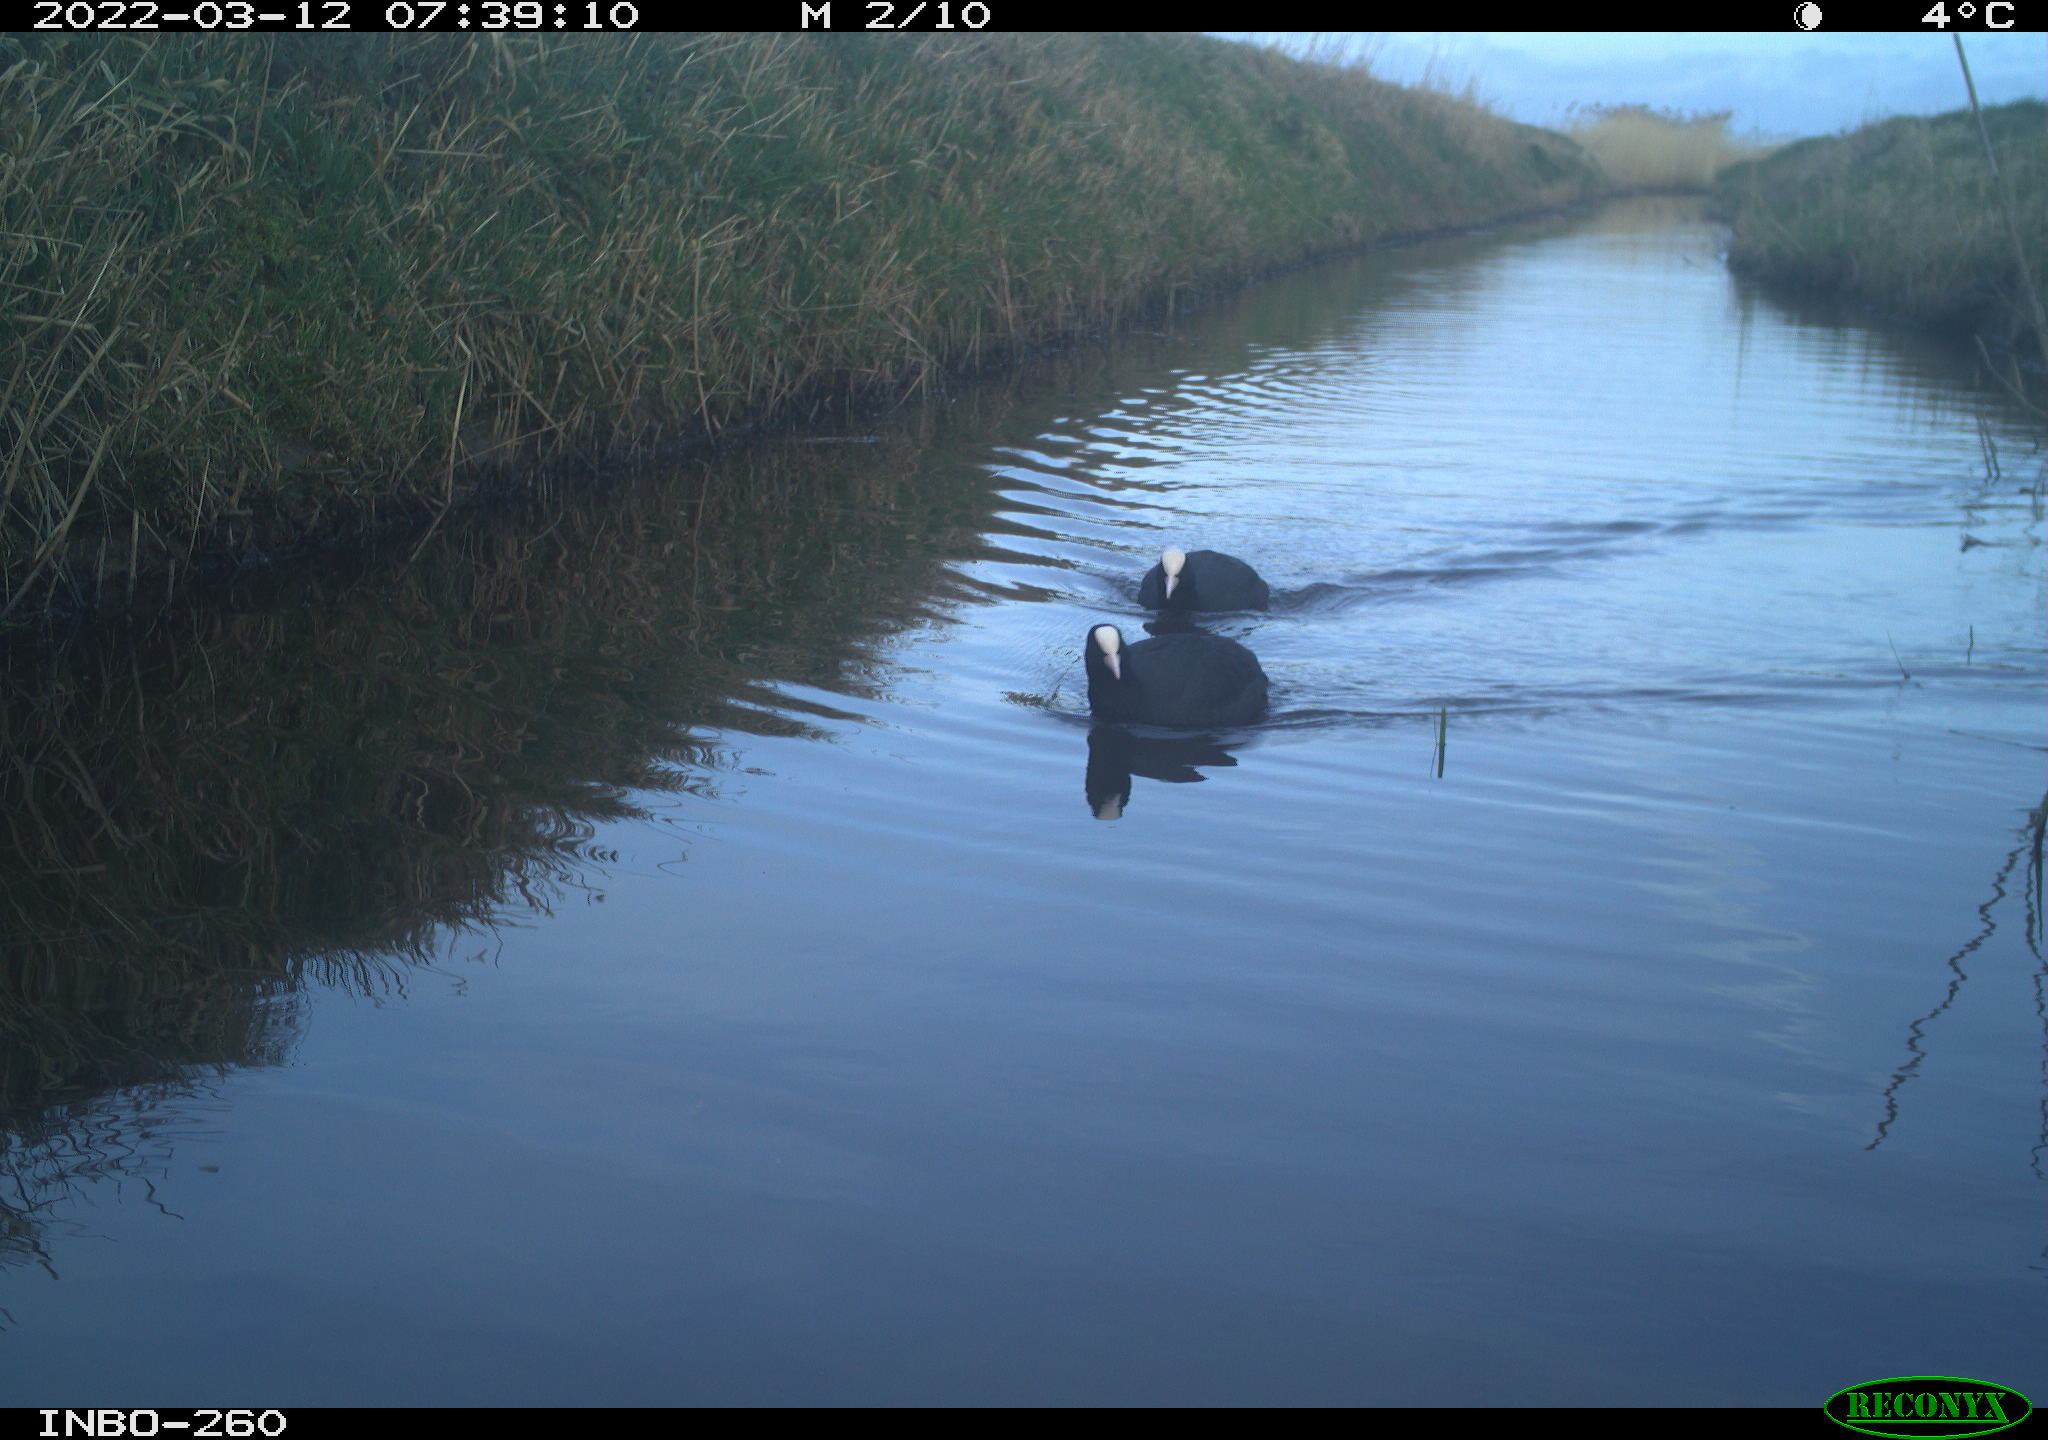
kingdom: Animalia
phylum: Chordata
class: Aves
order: Gruiformes
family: Rallidae
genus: Fulica
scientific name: Fulica atra
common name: Eurasian coot
